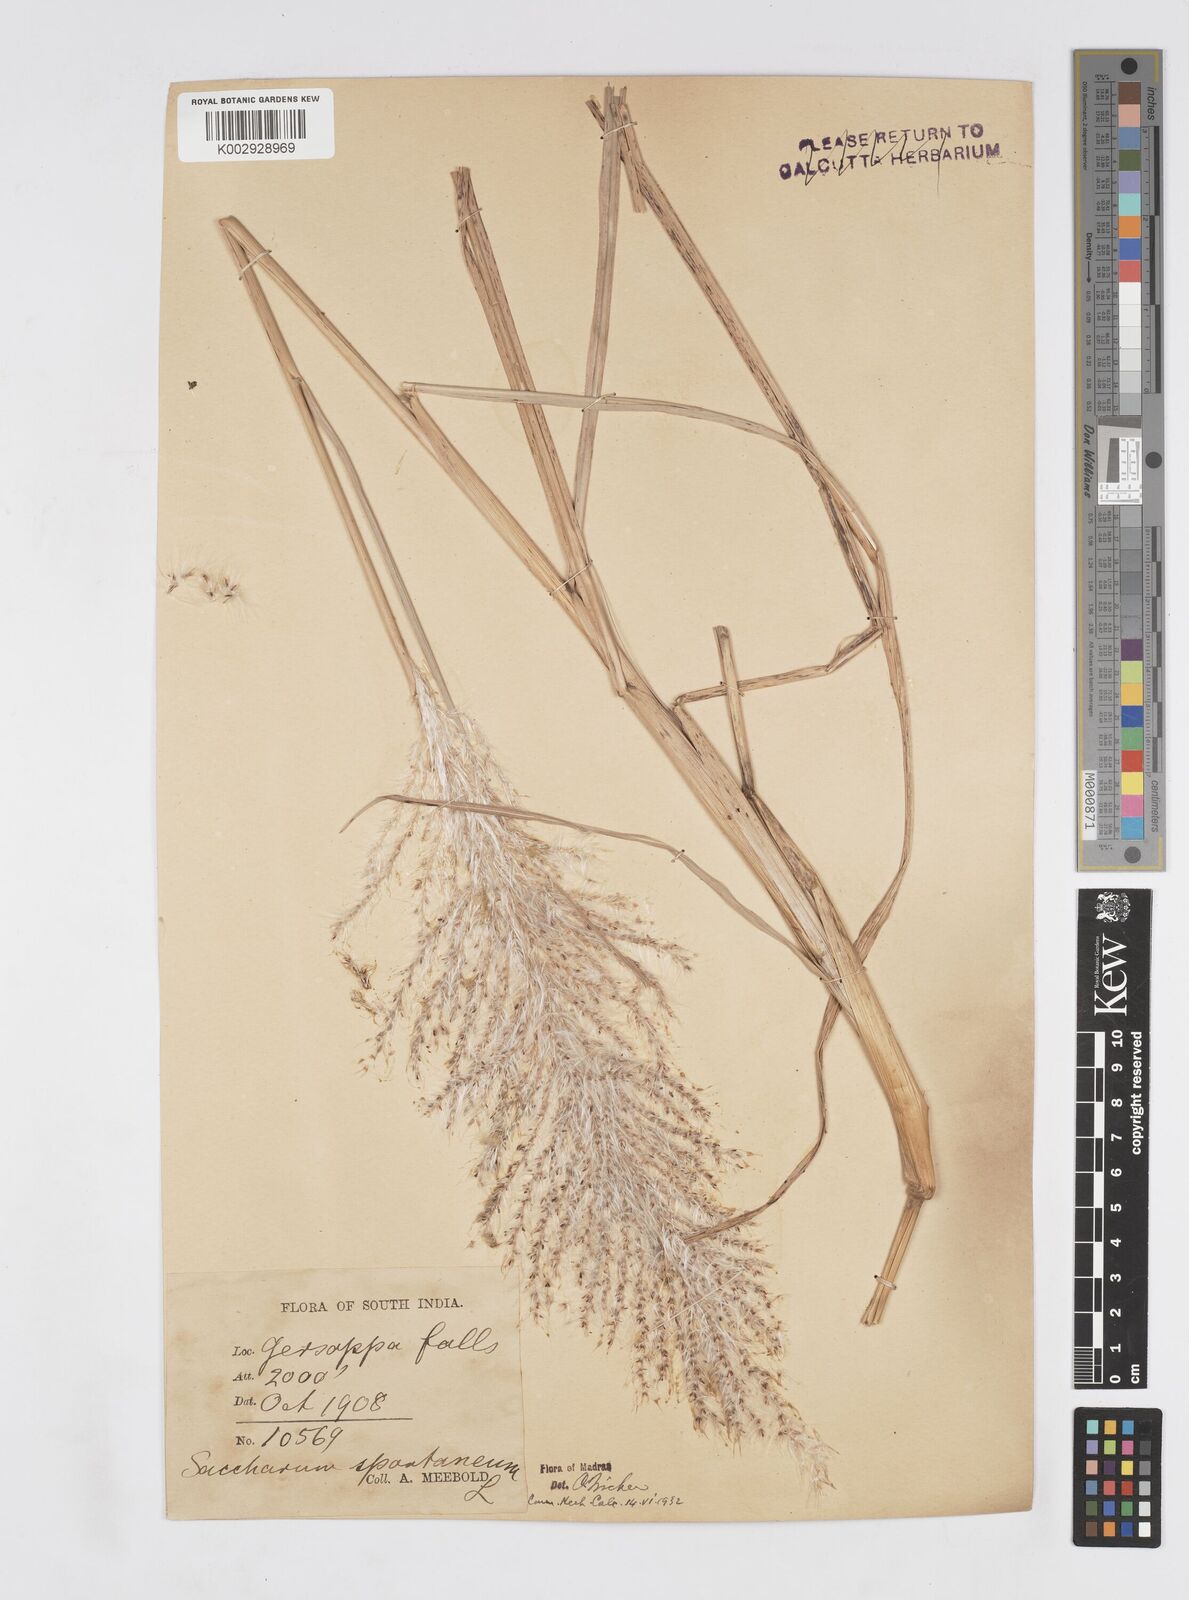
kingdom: Plantae
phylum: Tracheophyta
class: Liliopsida
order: Poales
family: Poaceae
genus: Saccharum
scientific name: Saccharum spontaneum
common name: Wild sugarcane
